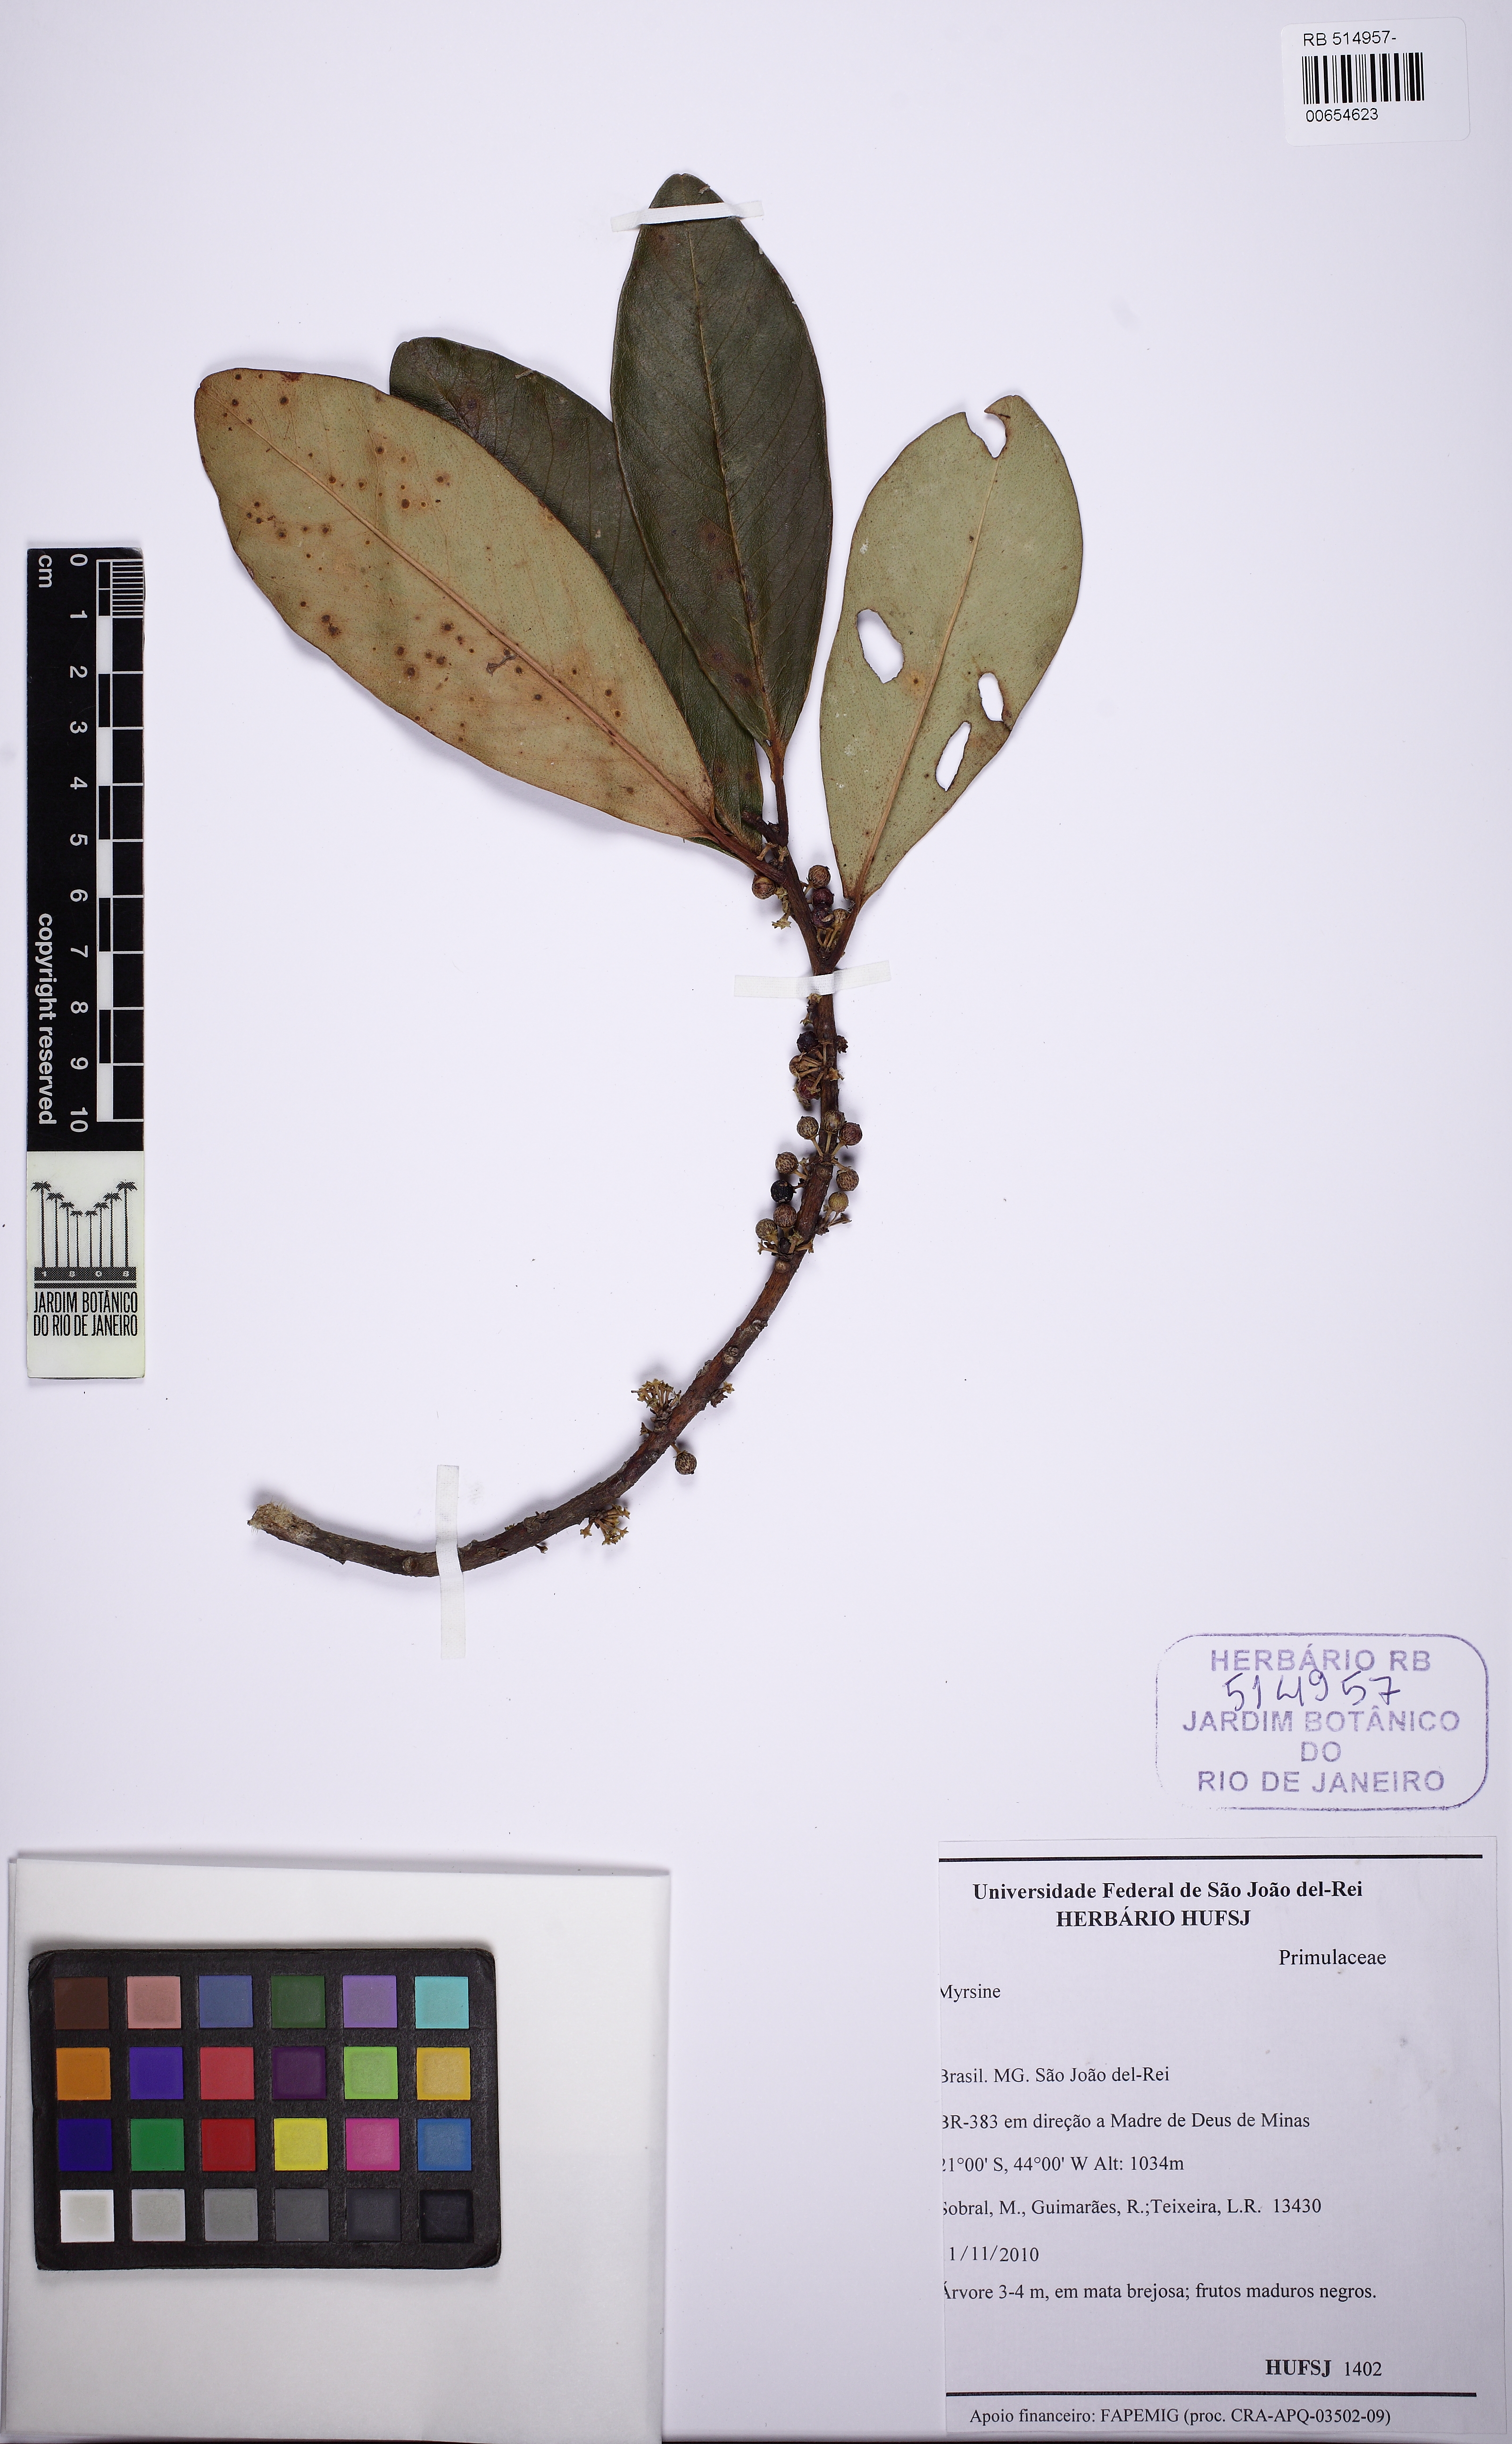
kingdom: Plantae
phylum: Tracheophyta
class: Magnoliopsida
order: Ericales
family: Primulaceae
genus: Myrsine
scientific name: Myrsine umbellata
